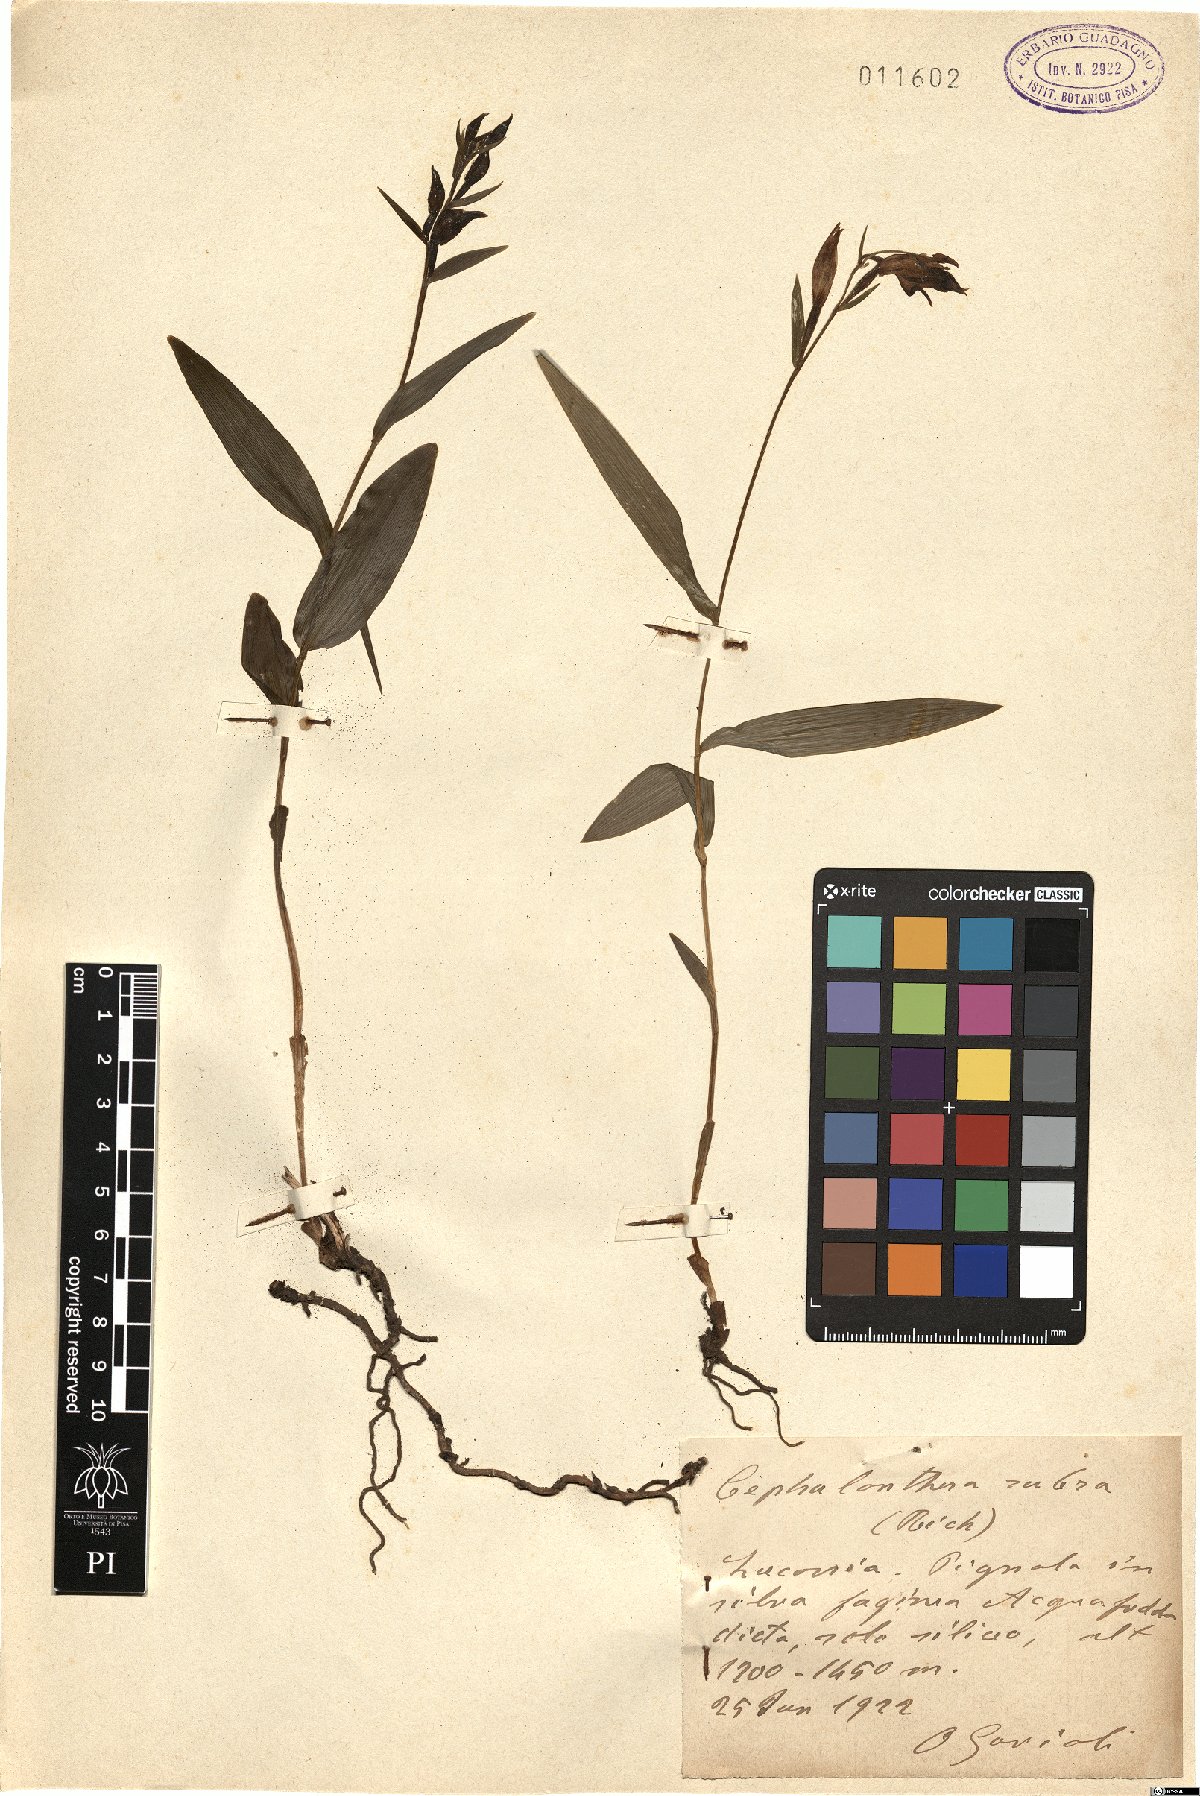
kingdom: Plantae
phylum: Tracheophyta
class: Liliopsida
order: Asparagales
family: Orchidaceae
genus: Cephalanthera
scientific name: Cephalanthera rubra
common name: Red helleborine
